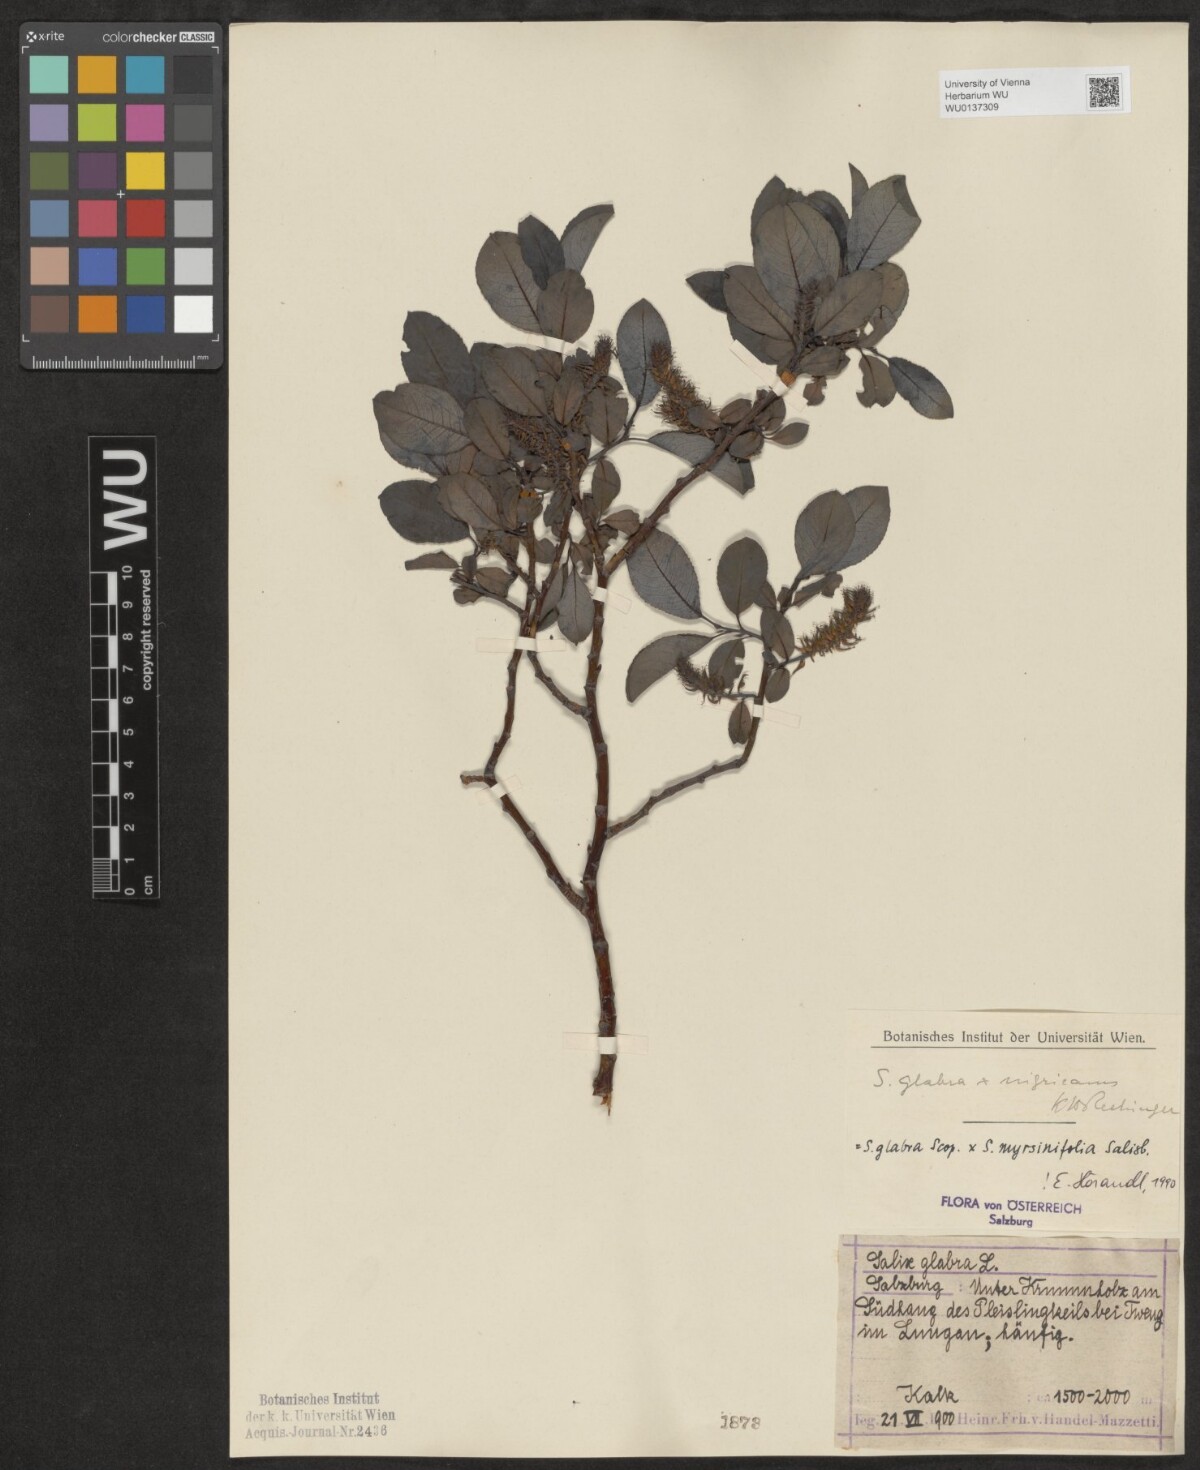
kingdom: Plantae
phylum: Tracheophyta
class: Magnoliopsida
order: Malpighiales
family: Salicaceae
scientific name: Salicaceae
